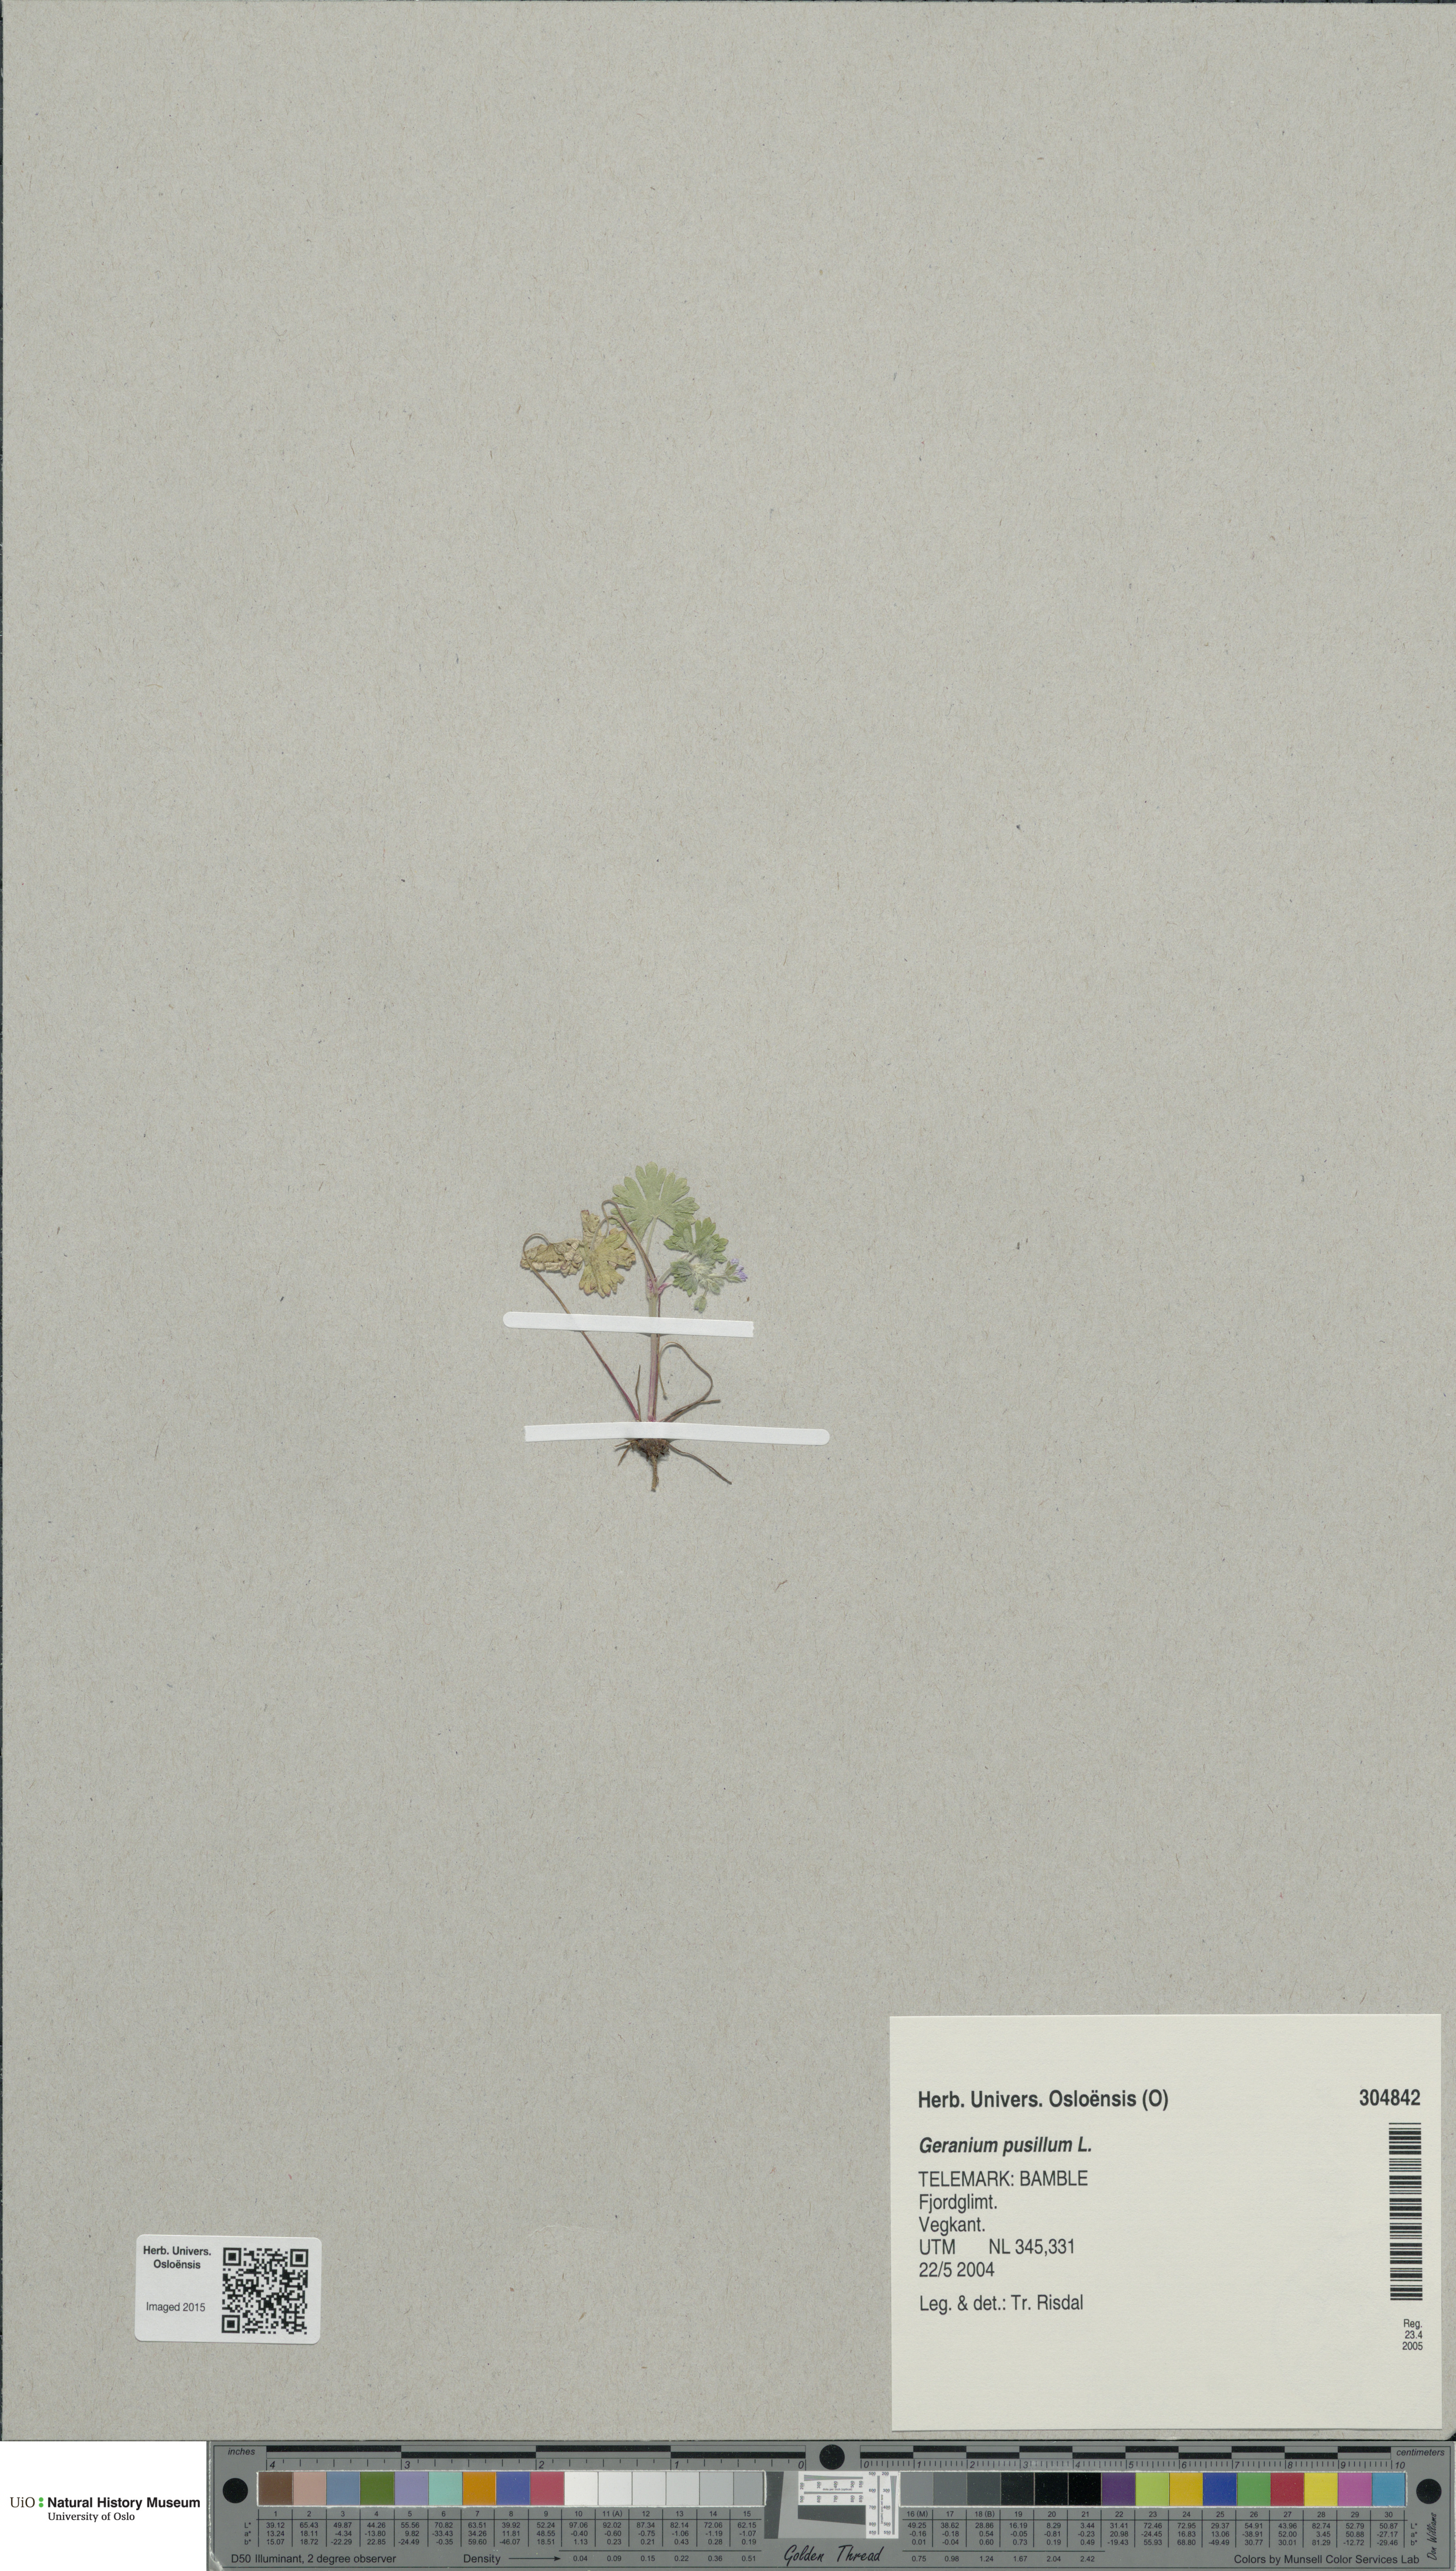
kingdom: Plantae
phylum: Tracheophyta
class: Magnoliopsida
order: Geraniales
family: Geraniaceae
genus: Geranium
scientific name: Geranium pusillum
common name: Small geranium
